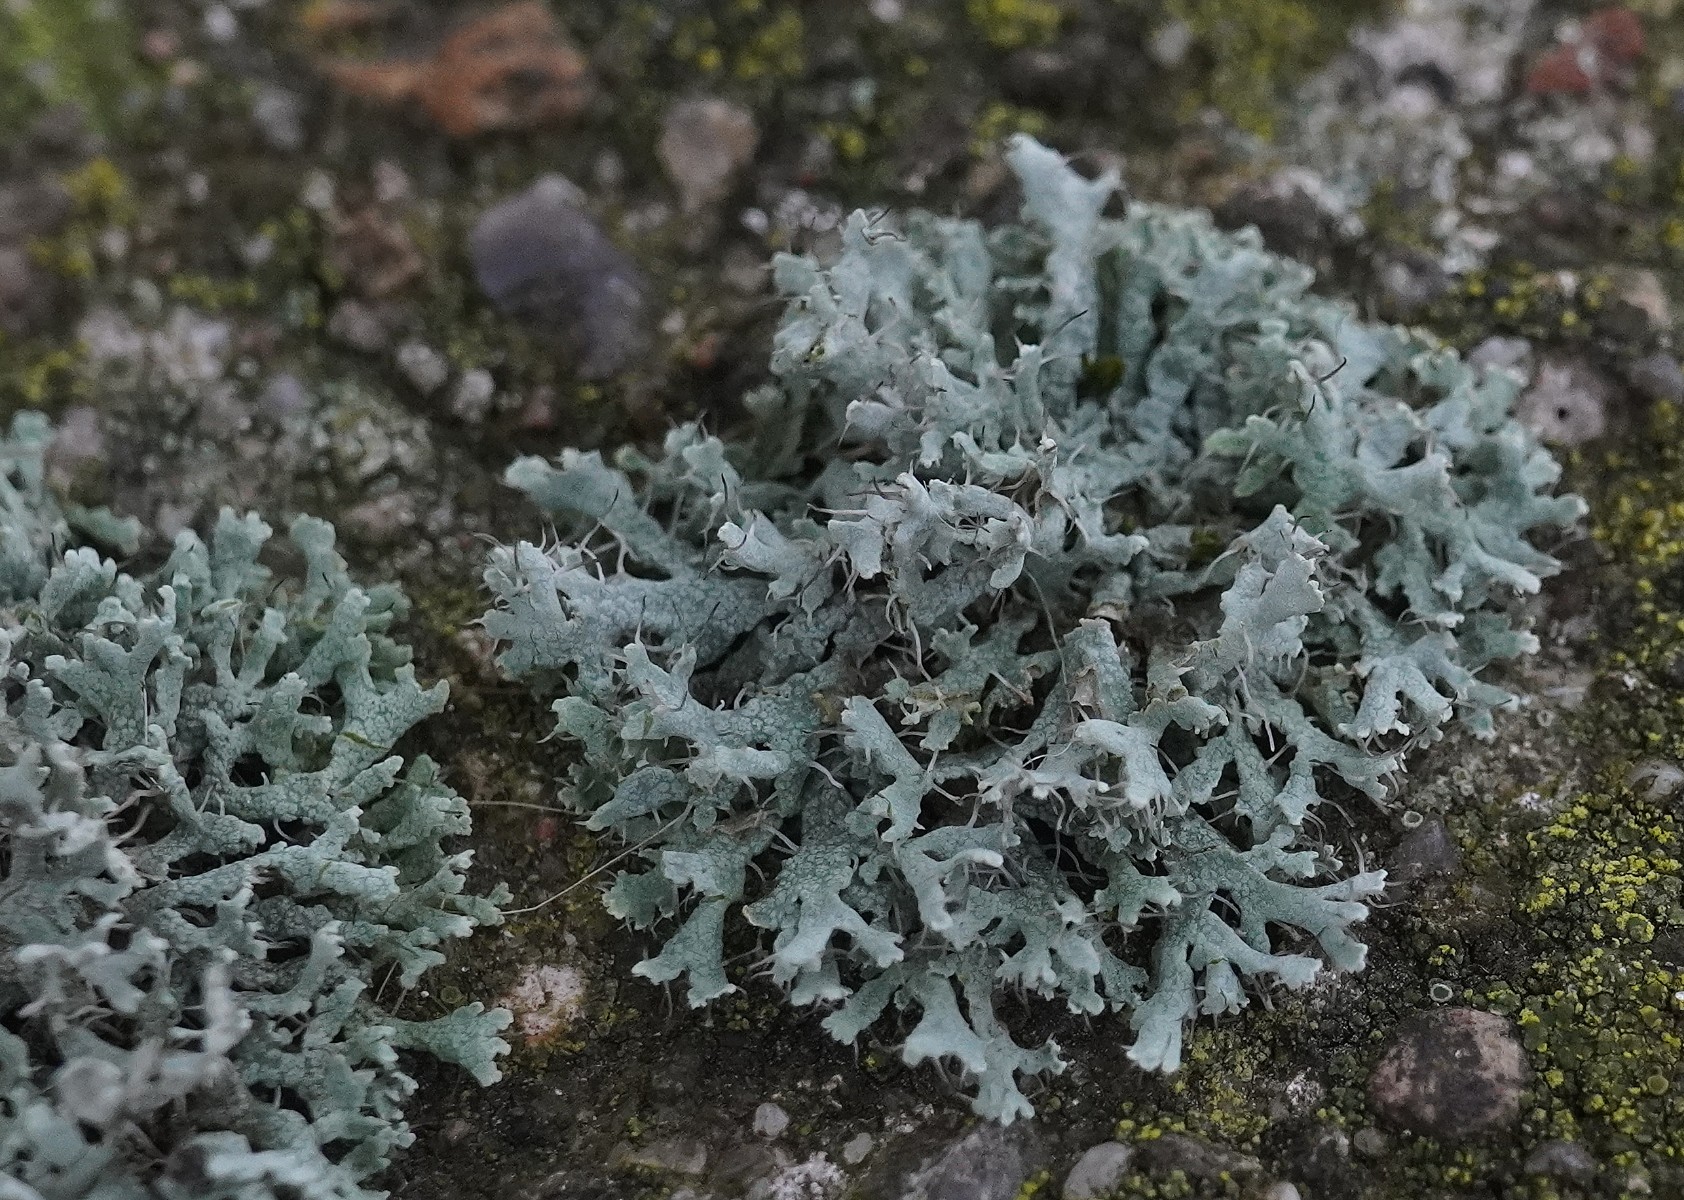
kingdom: Fungi
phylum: Ascomycota
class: Lecanoromycetes
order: Caliciales
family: Physciaceae
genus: Physcia
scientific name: Physcia tenella
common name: spæd rosetlav
